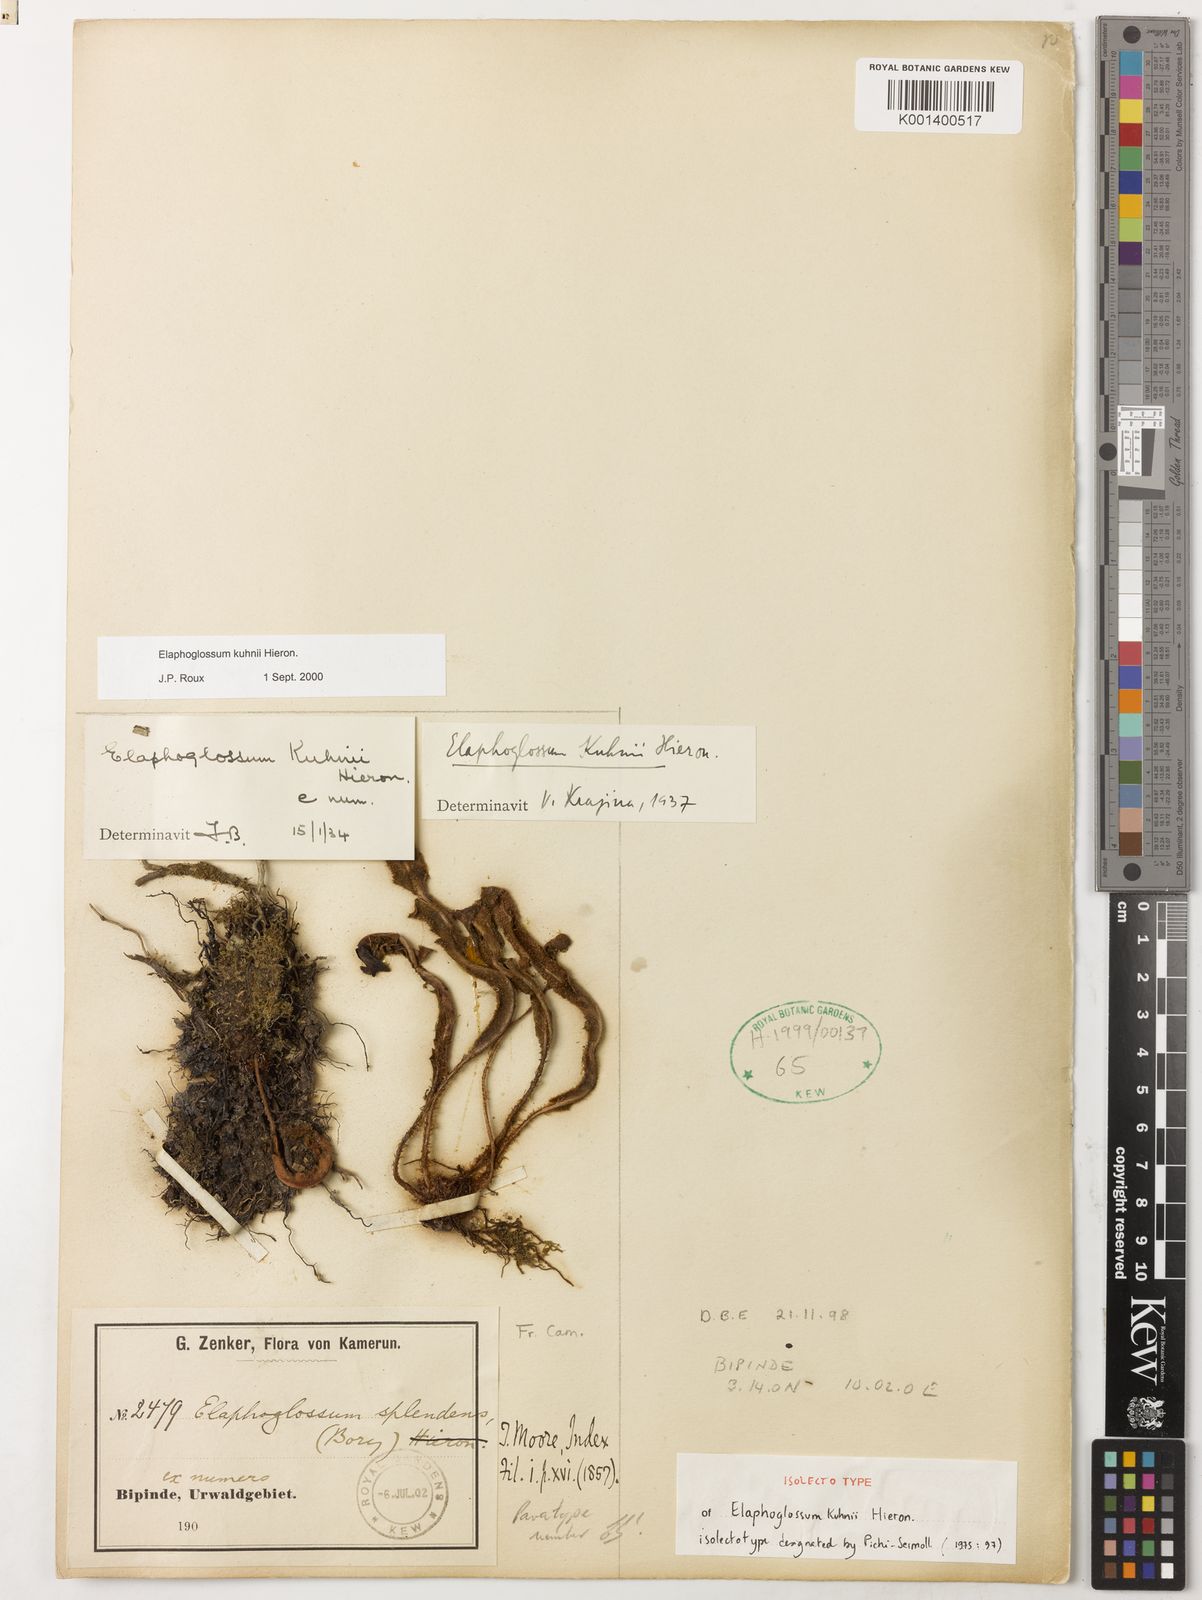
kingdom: Plantae
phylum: Tracheophyta
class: Polypodiopsida
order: Polypodiales
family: Dryopteridaceae
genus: Elaphoglossum
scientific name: Elaphoglossum kuhnii
